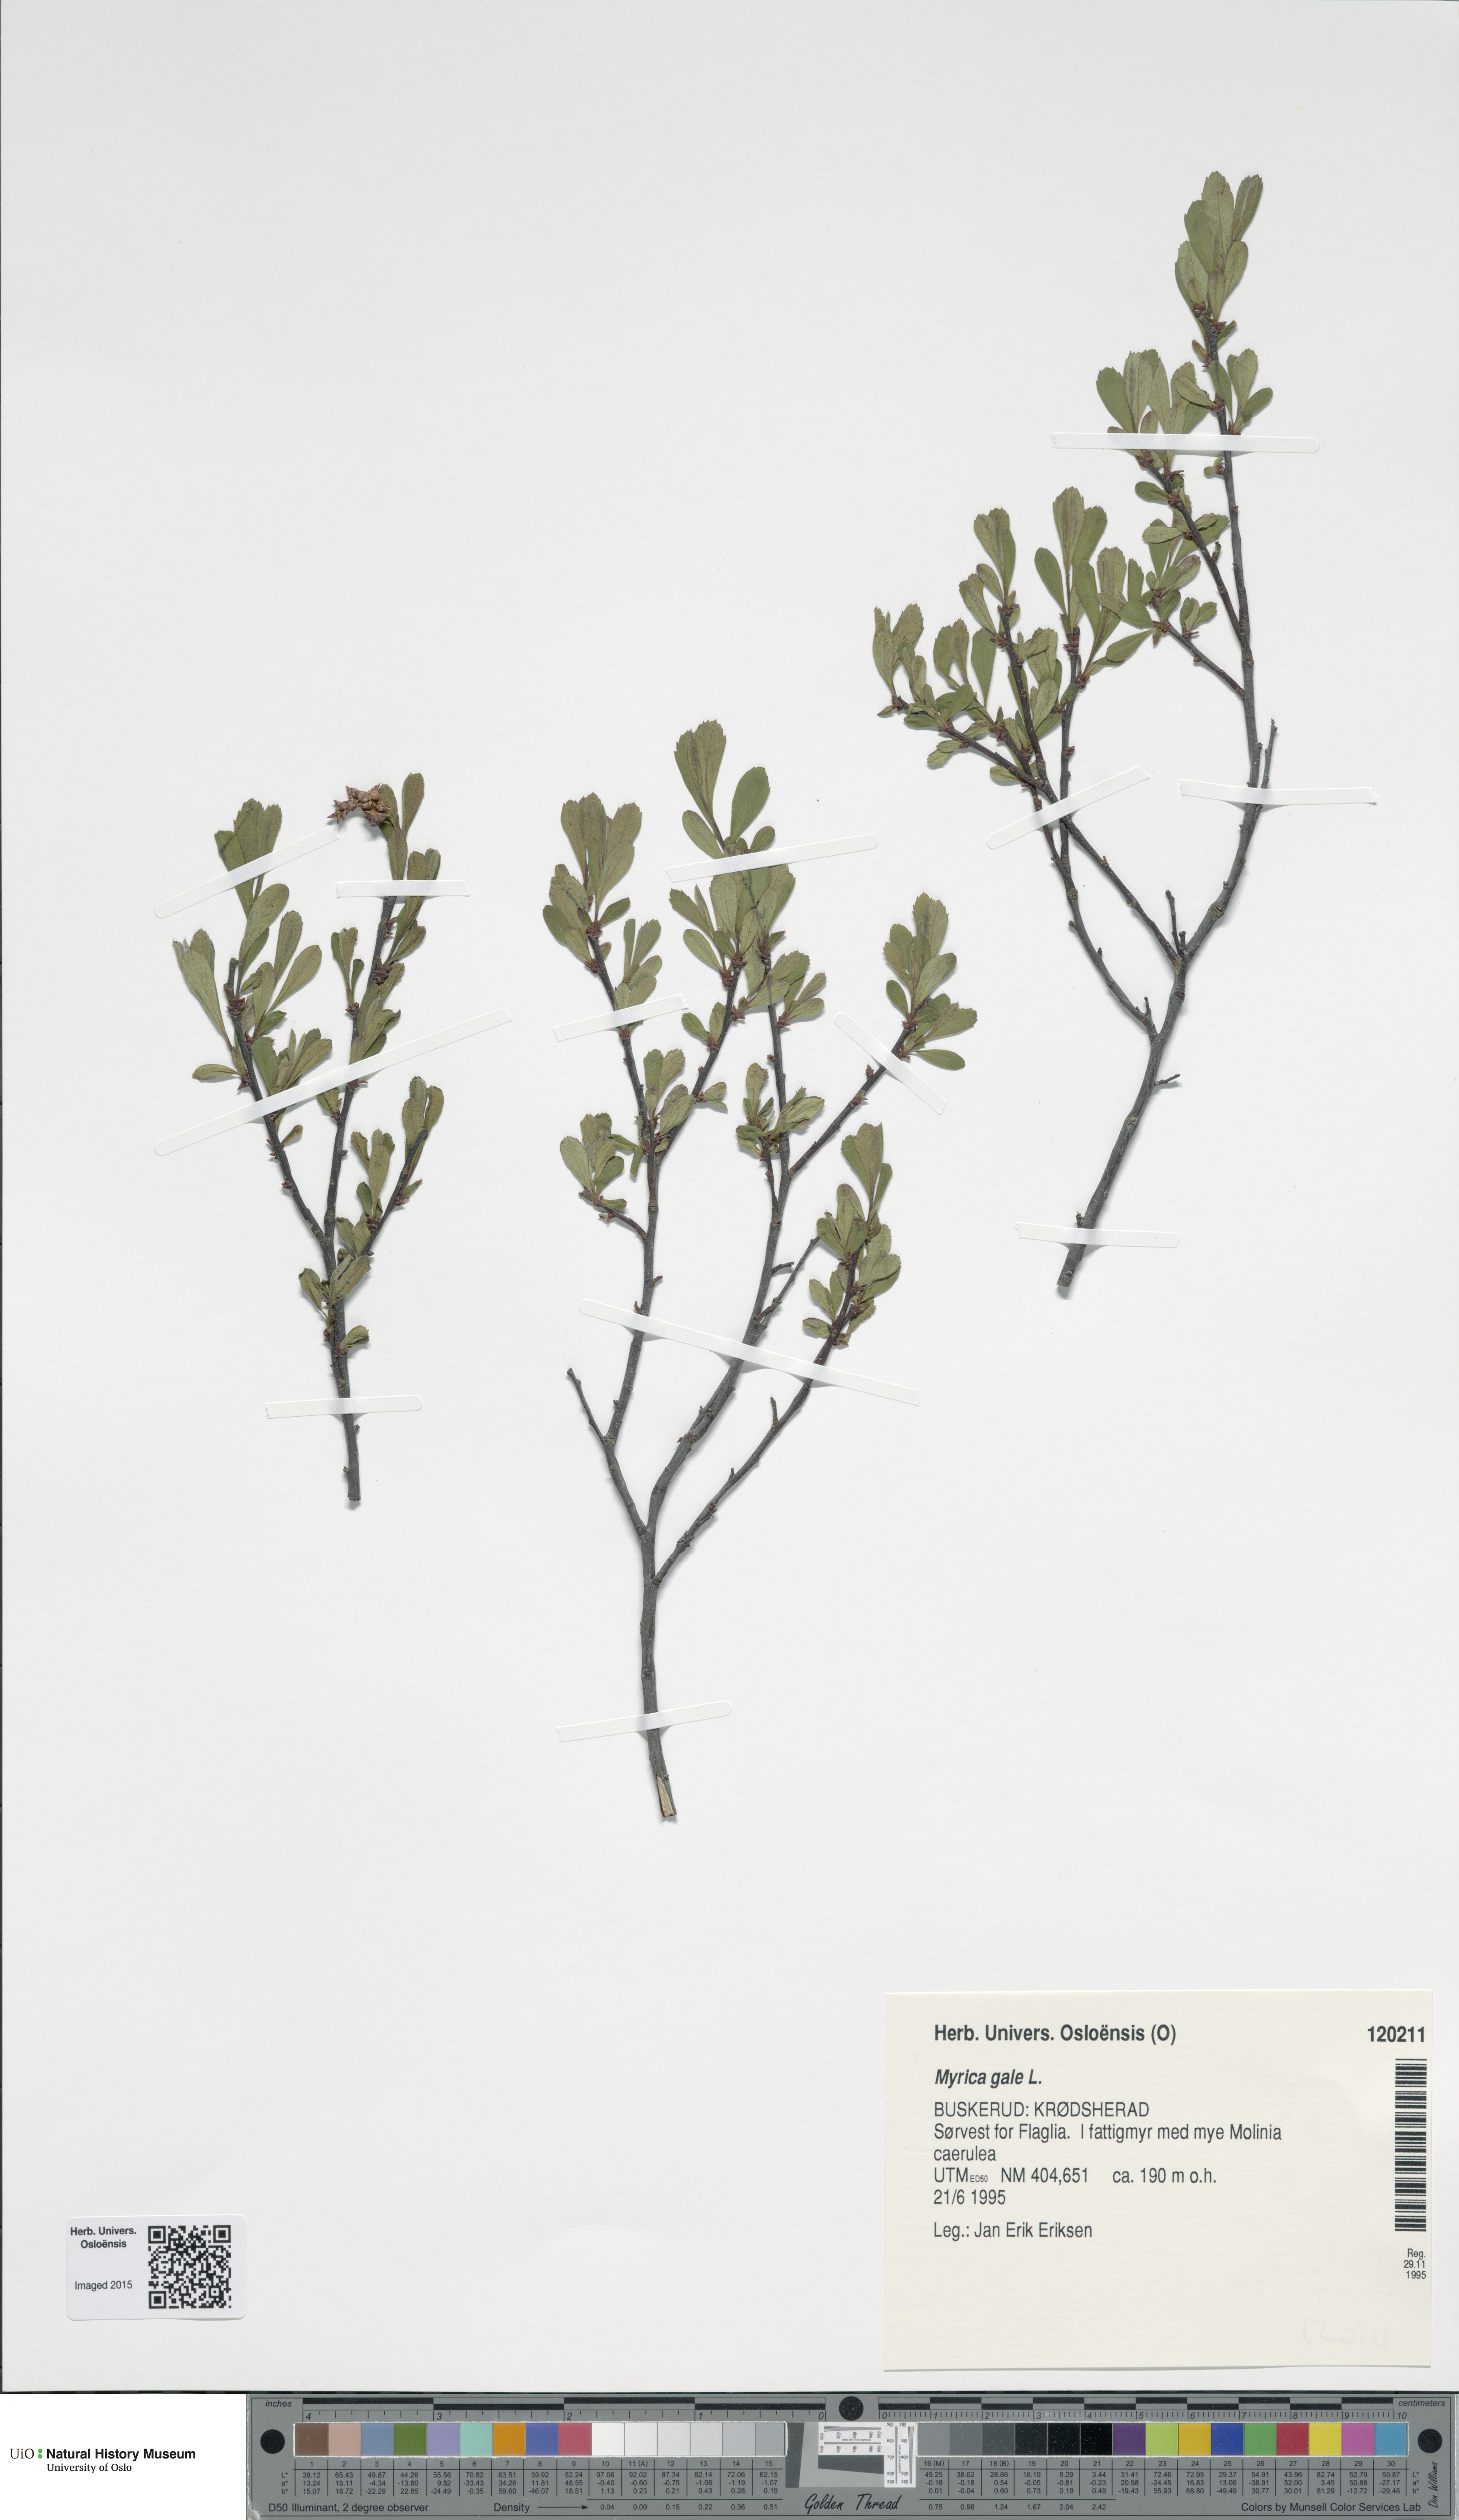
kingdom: Plantae
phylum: Tracheophyta
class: Magnoliopsida
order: Fagales
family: Myricaceae
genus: Myrica
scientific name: Myrica gale
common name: Sweet gale
